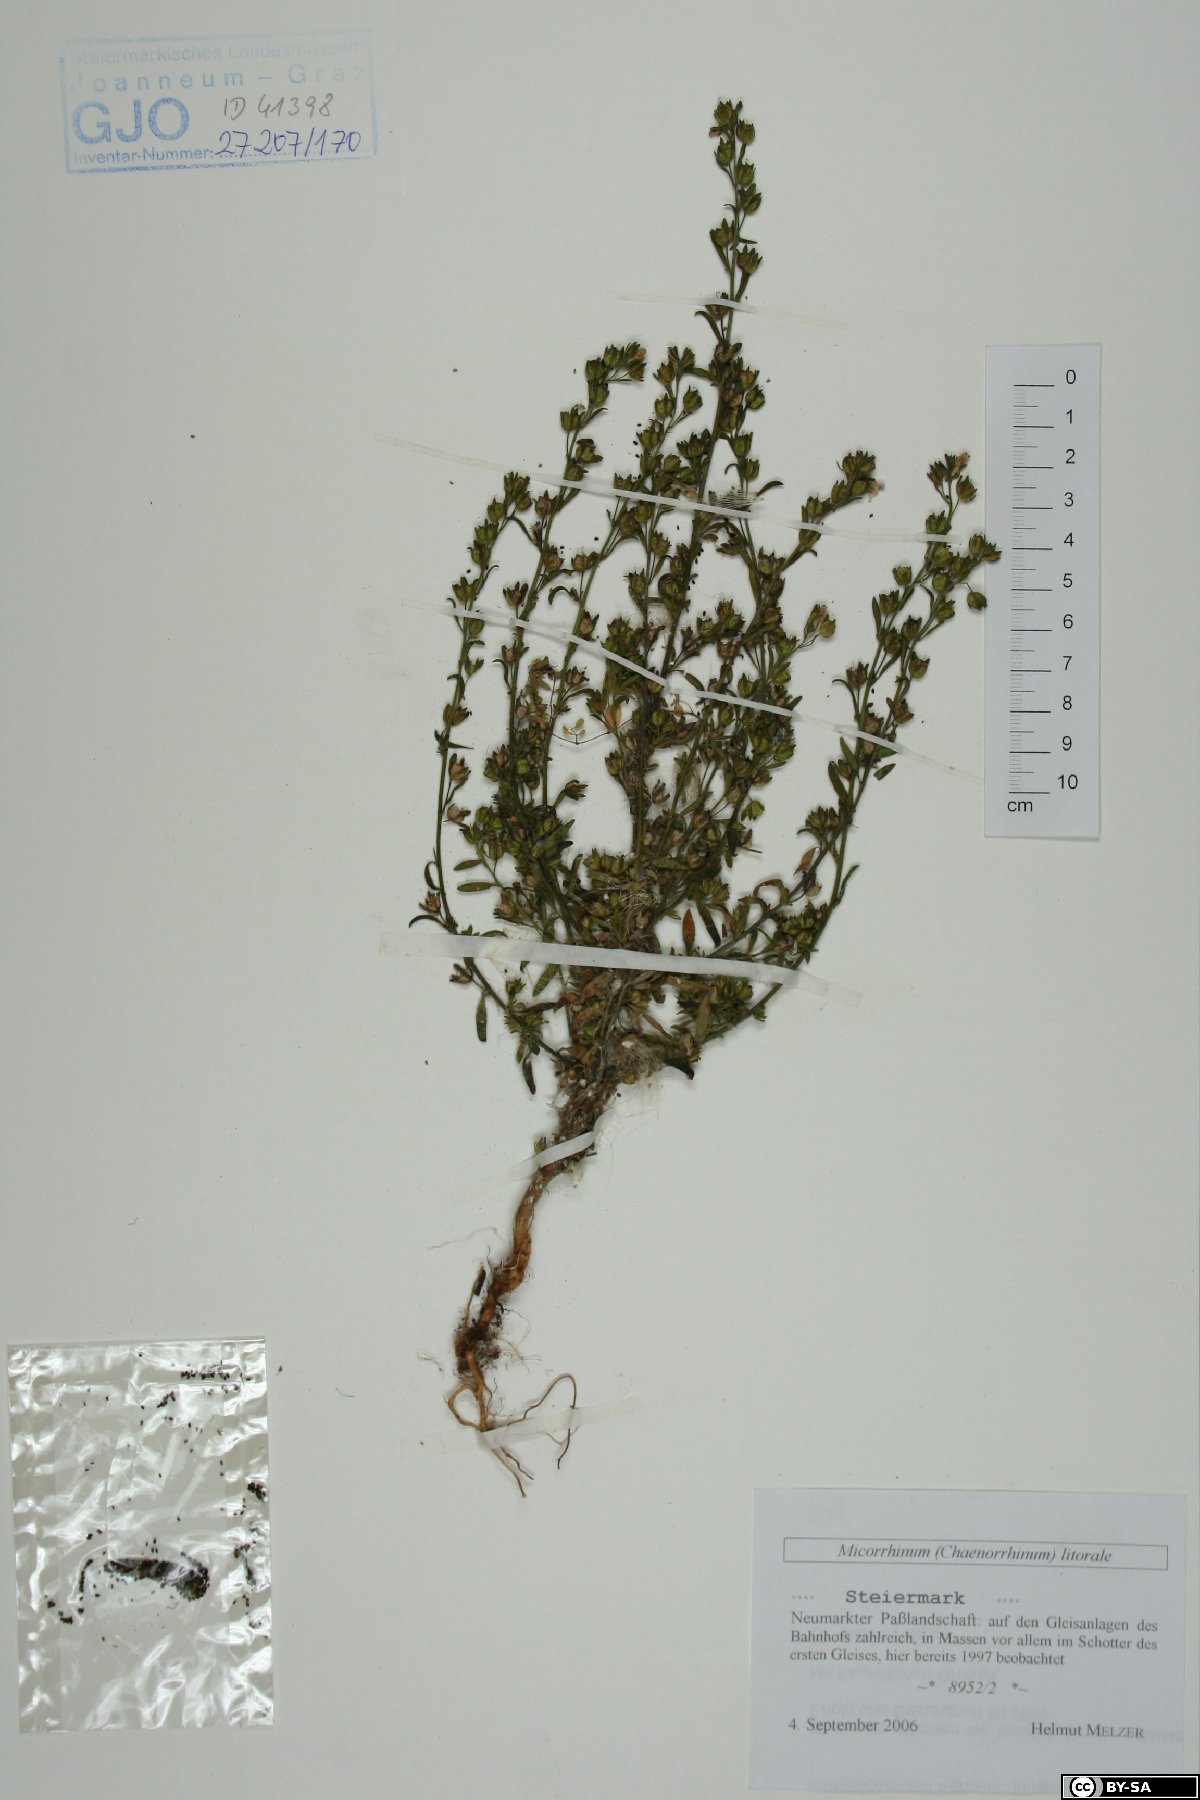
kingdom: Plantae
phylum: Tracheophyta
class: Magnoliopsida
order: Lamiales
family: Plantaginaceae
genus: Chaenorhinum
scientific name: Chaenorhinum litorale
